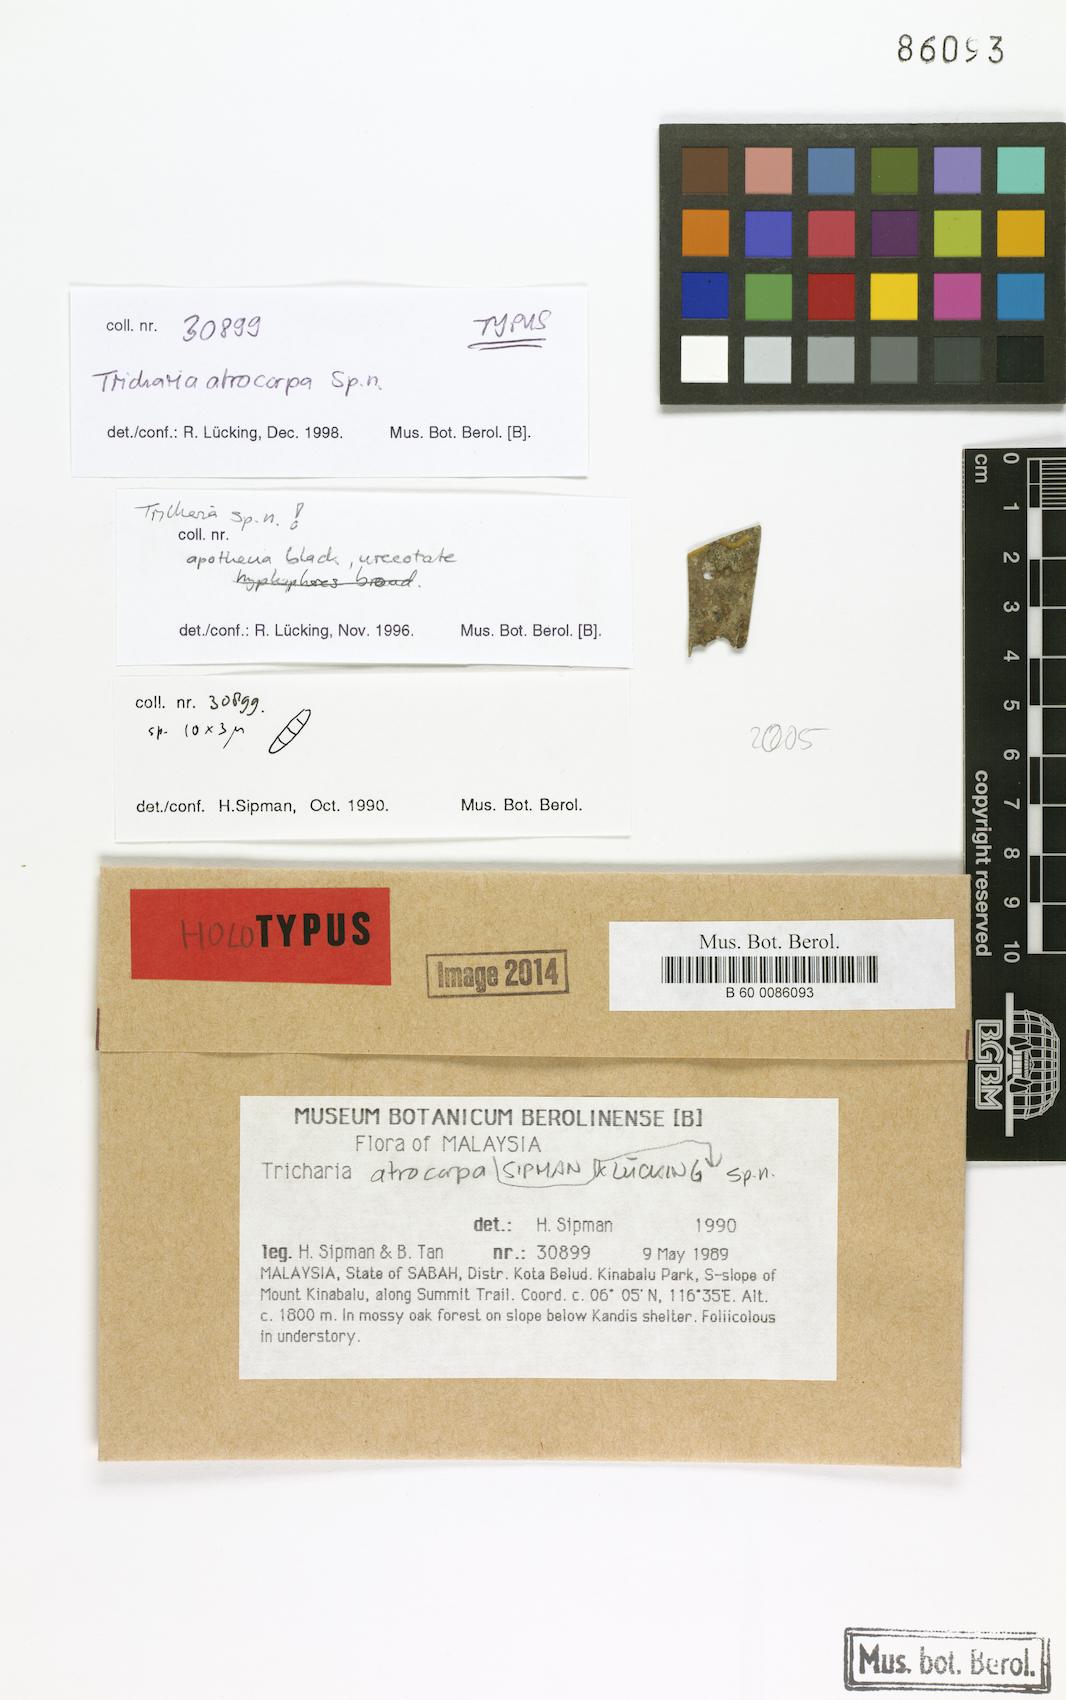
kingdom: Fungi
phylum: Ascomycota
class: Lecanoromycetes
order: Ostropales
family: Gomphillaceae
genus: Tricharia
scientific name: Tricharia atrocarpa
